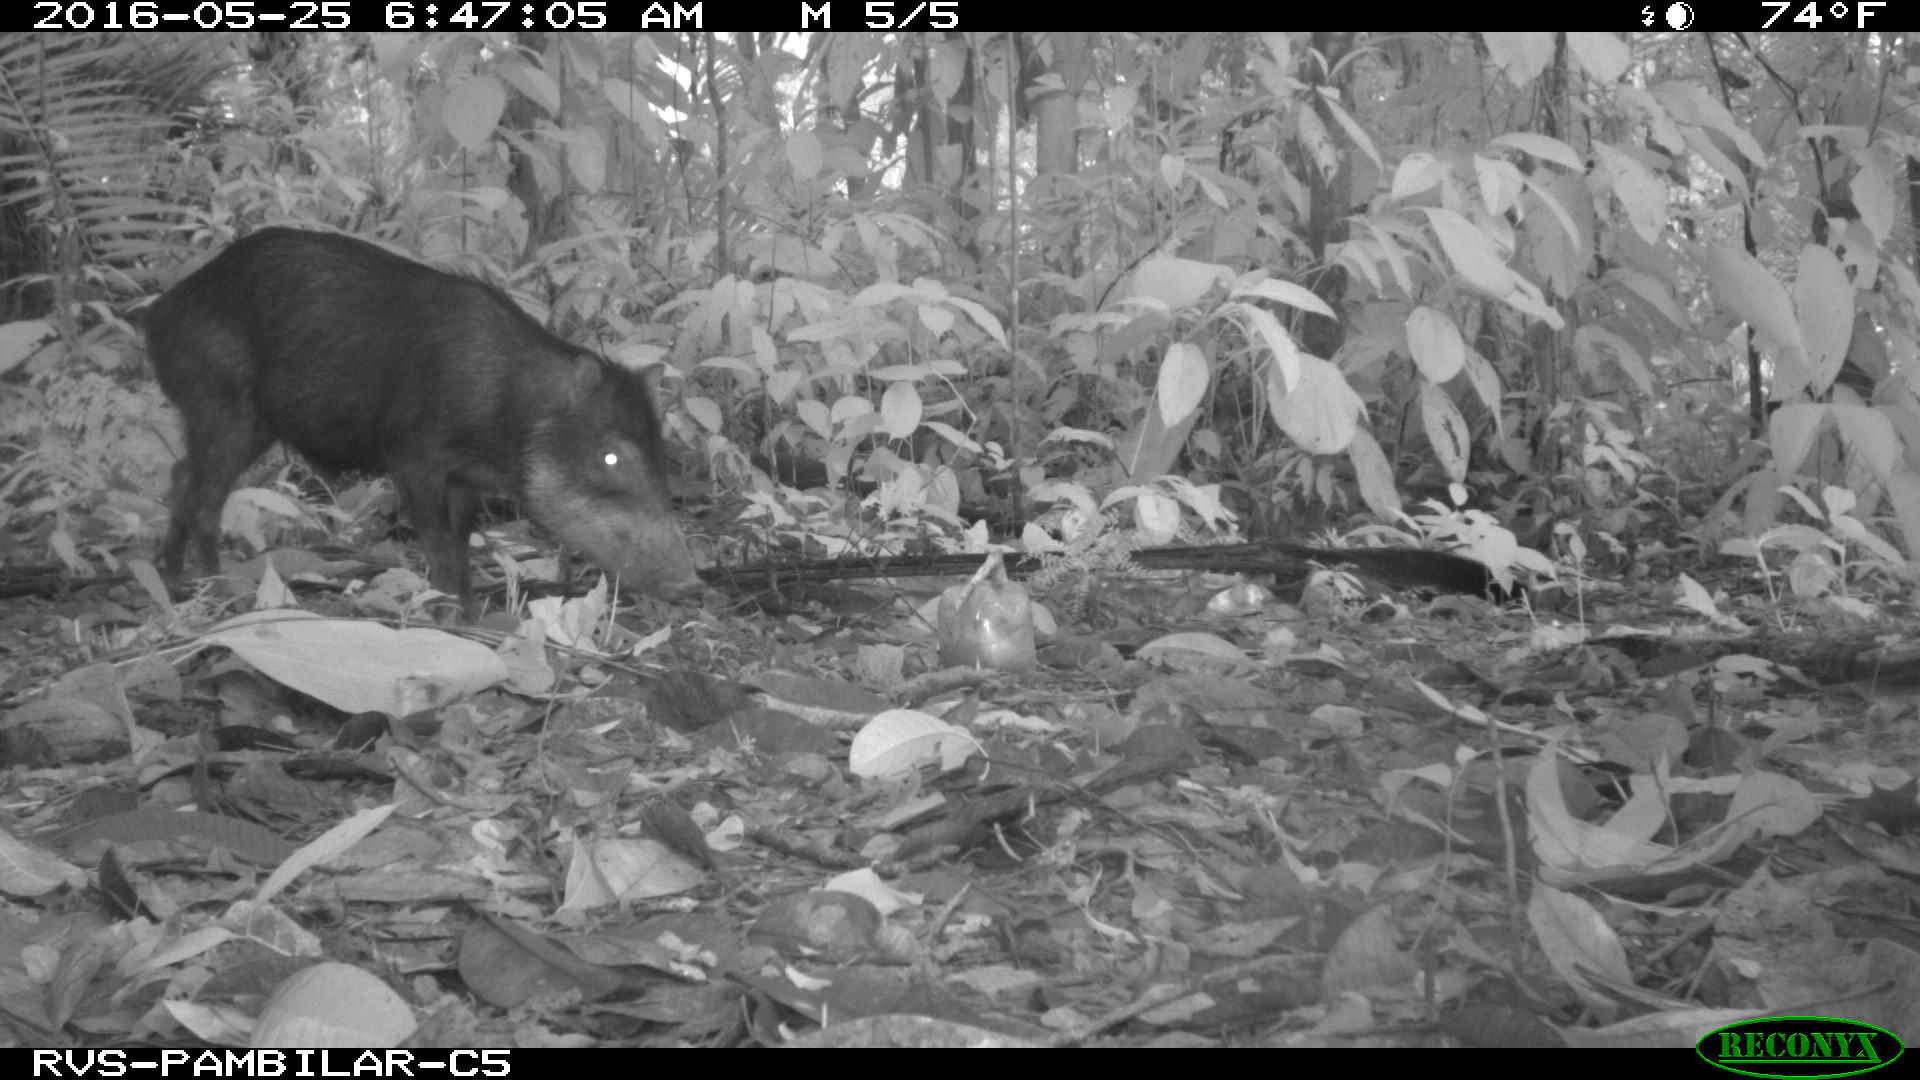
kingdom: Animalia
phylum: Chordata
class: Mammalia
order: Artiodactyla
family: Tayassuidae
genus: Tayassu
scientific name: Tayassu pecari
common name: White-lipped peccary
